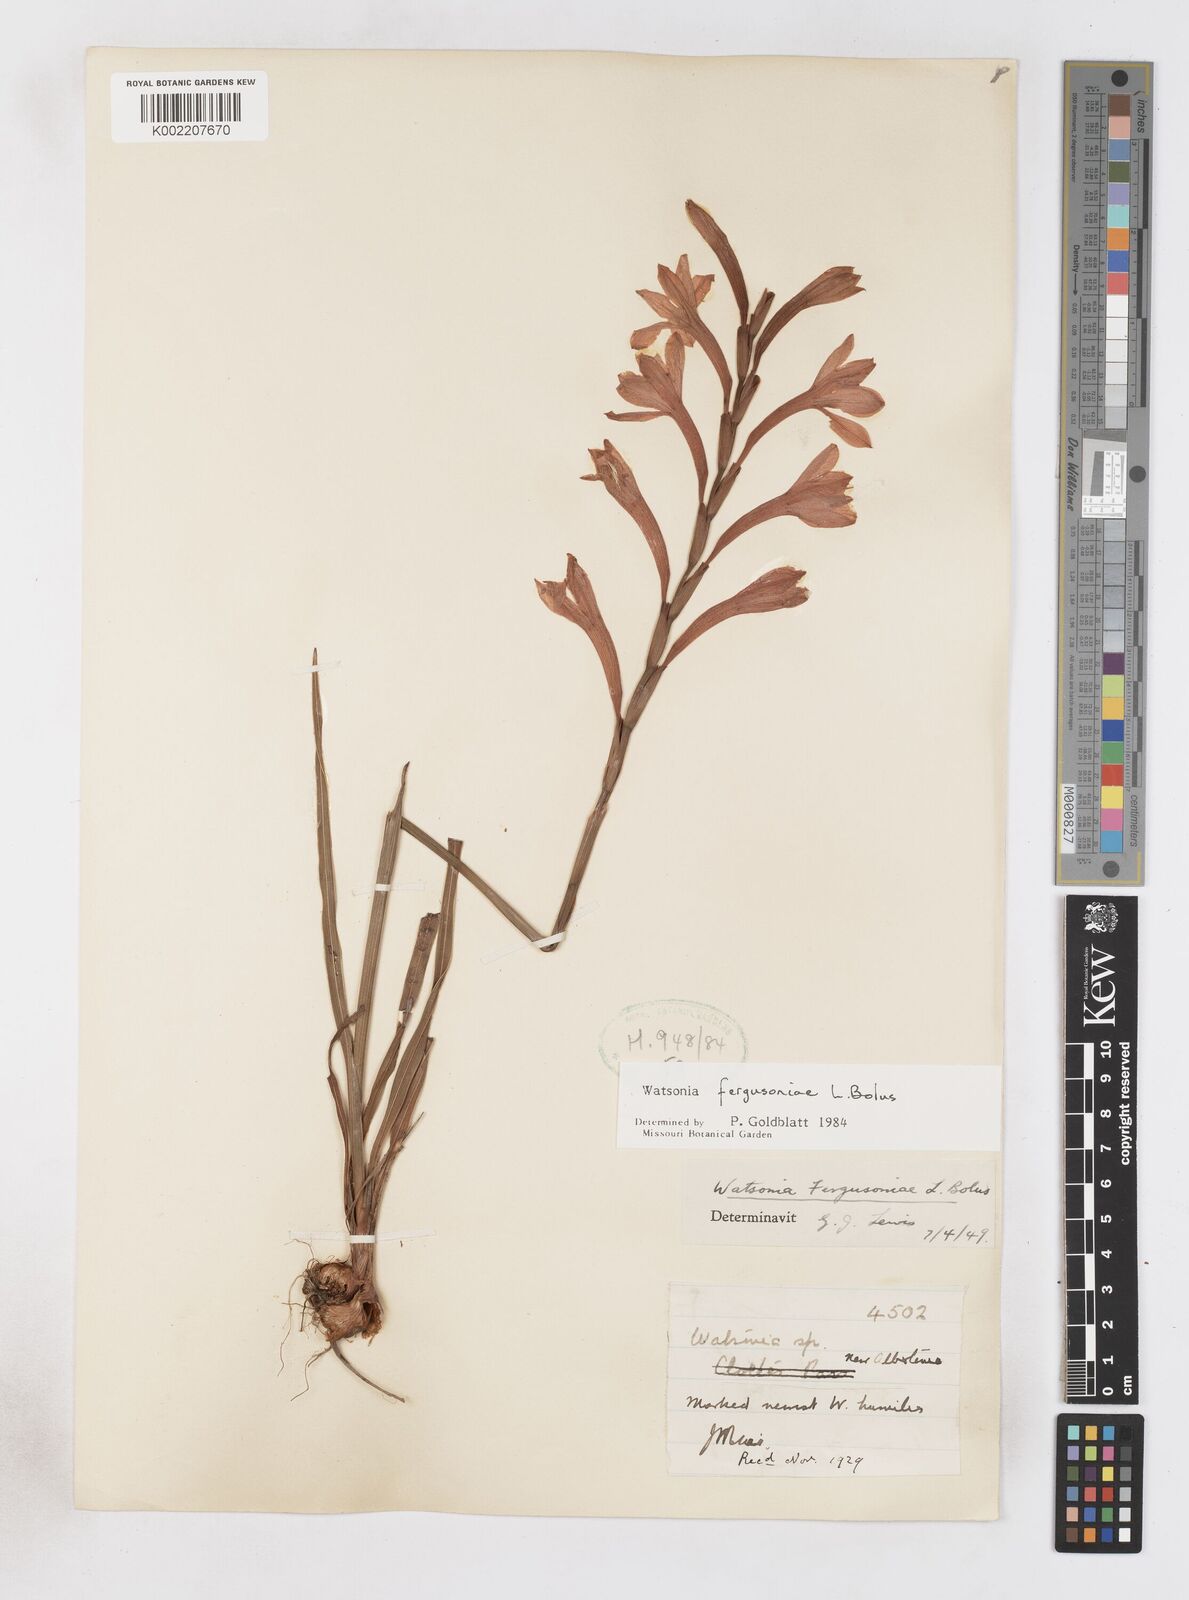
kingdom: Plantae
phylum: Tracheophyta
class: Liliopsida
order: Asparagales
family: Iridaceae
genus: Watsonia
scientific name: Watsonia fergusoniae
